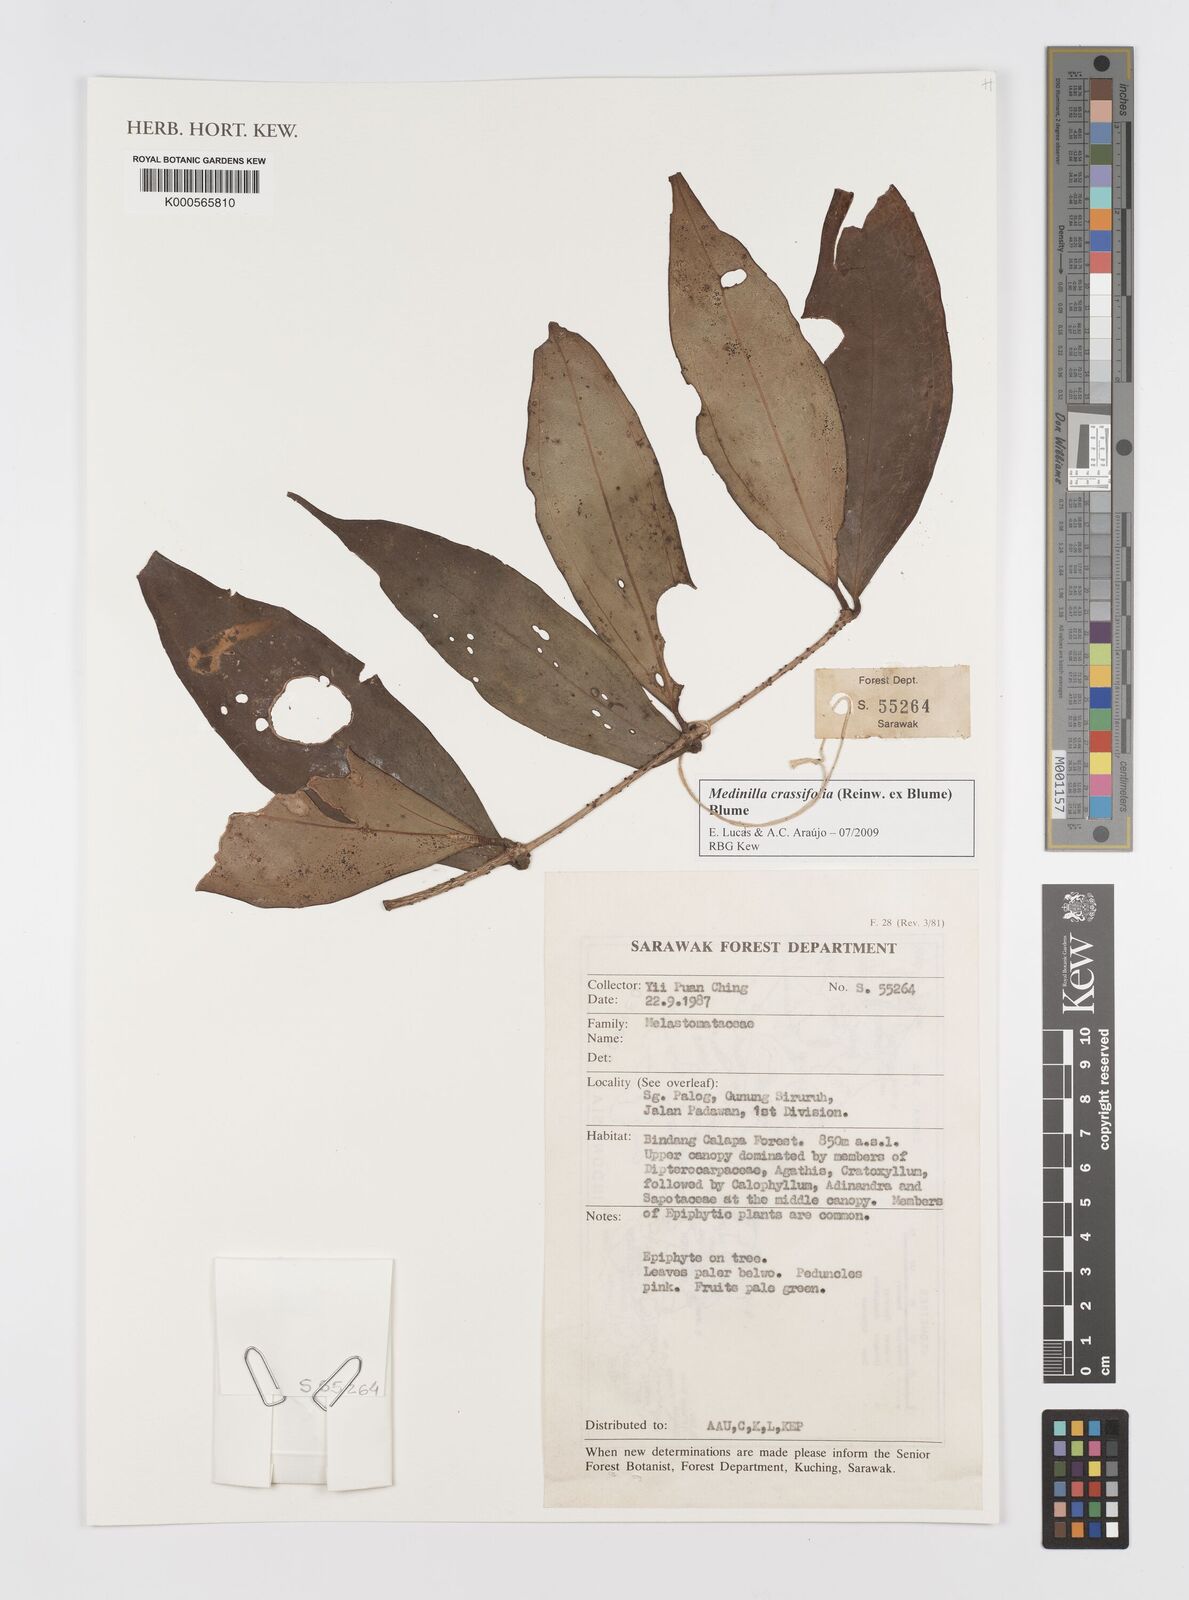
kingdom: Plantae
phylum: Tracheophyta
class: Magnoliopsida
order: Myrtales
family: Melastomataceae
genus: Medinilla
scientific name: Medinilla crassifolia
